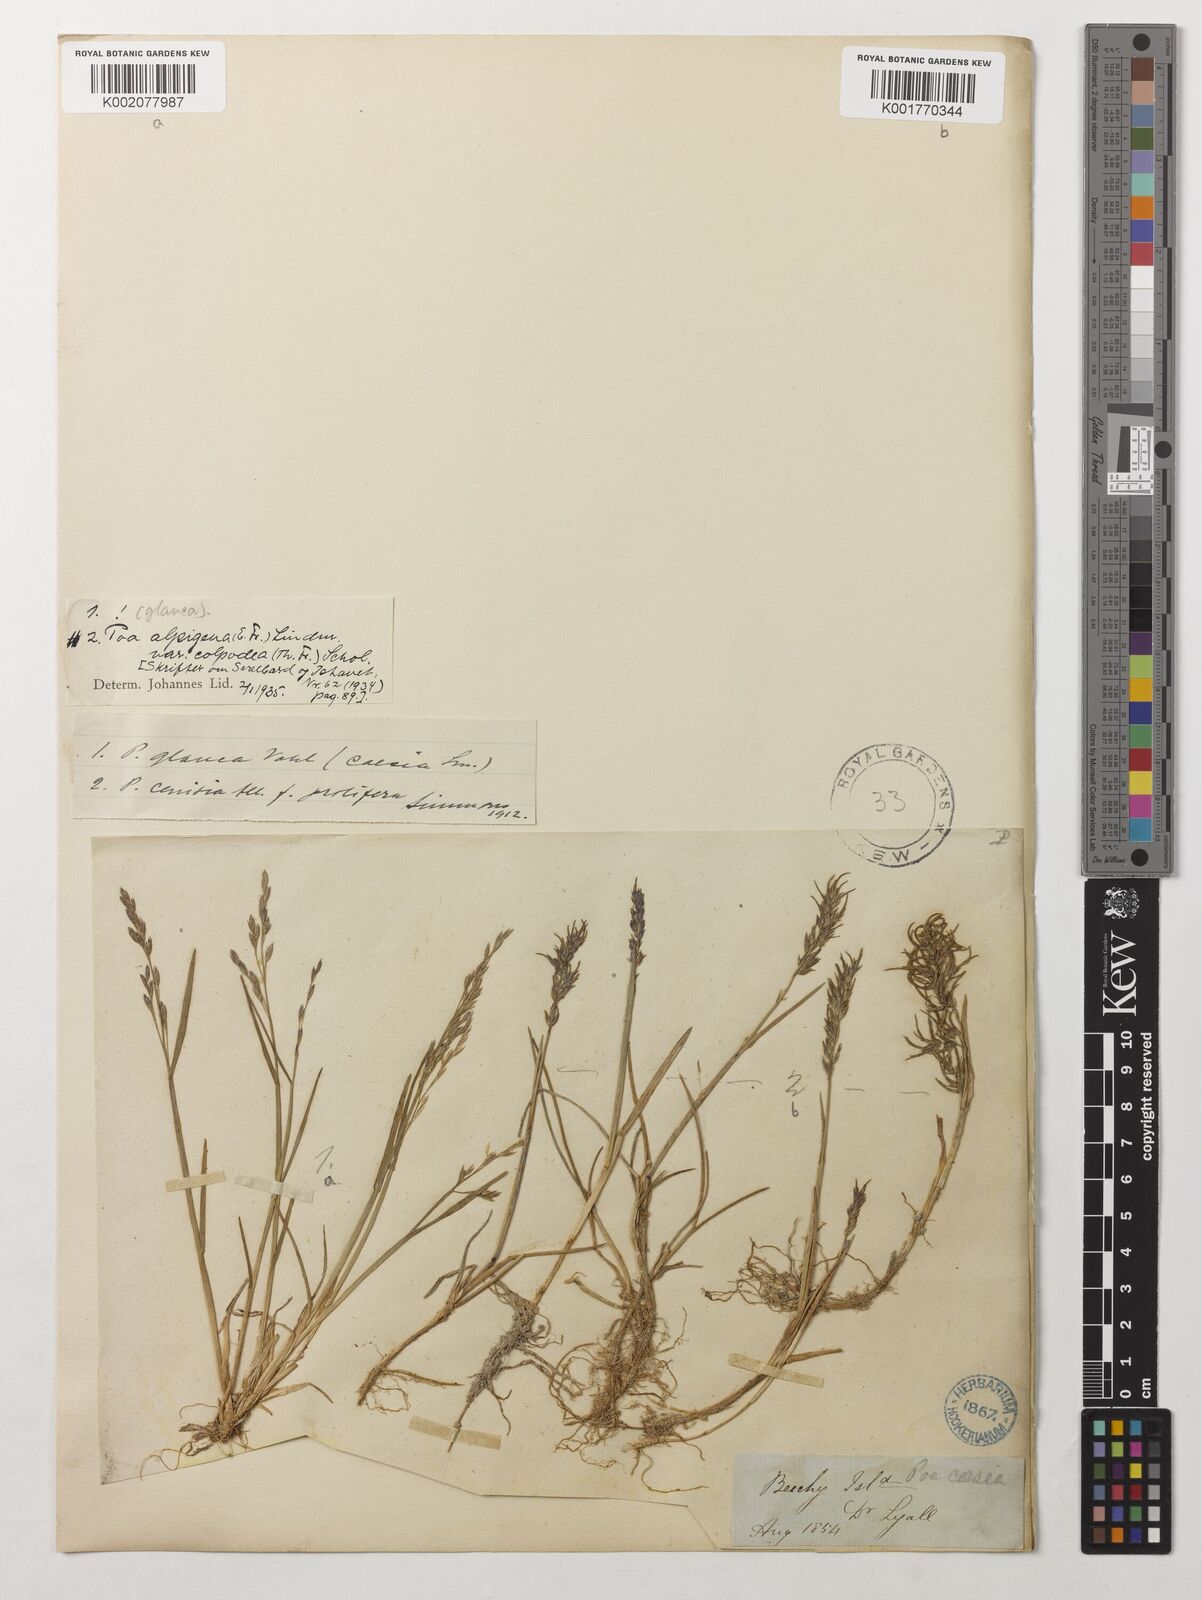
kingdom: Plantae
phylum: Tracheophyta
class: Liliopsida
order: Poales
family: Poaceae
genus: Poa
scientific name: Poa lindebergii
